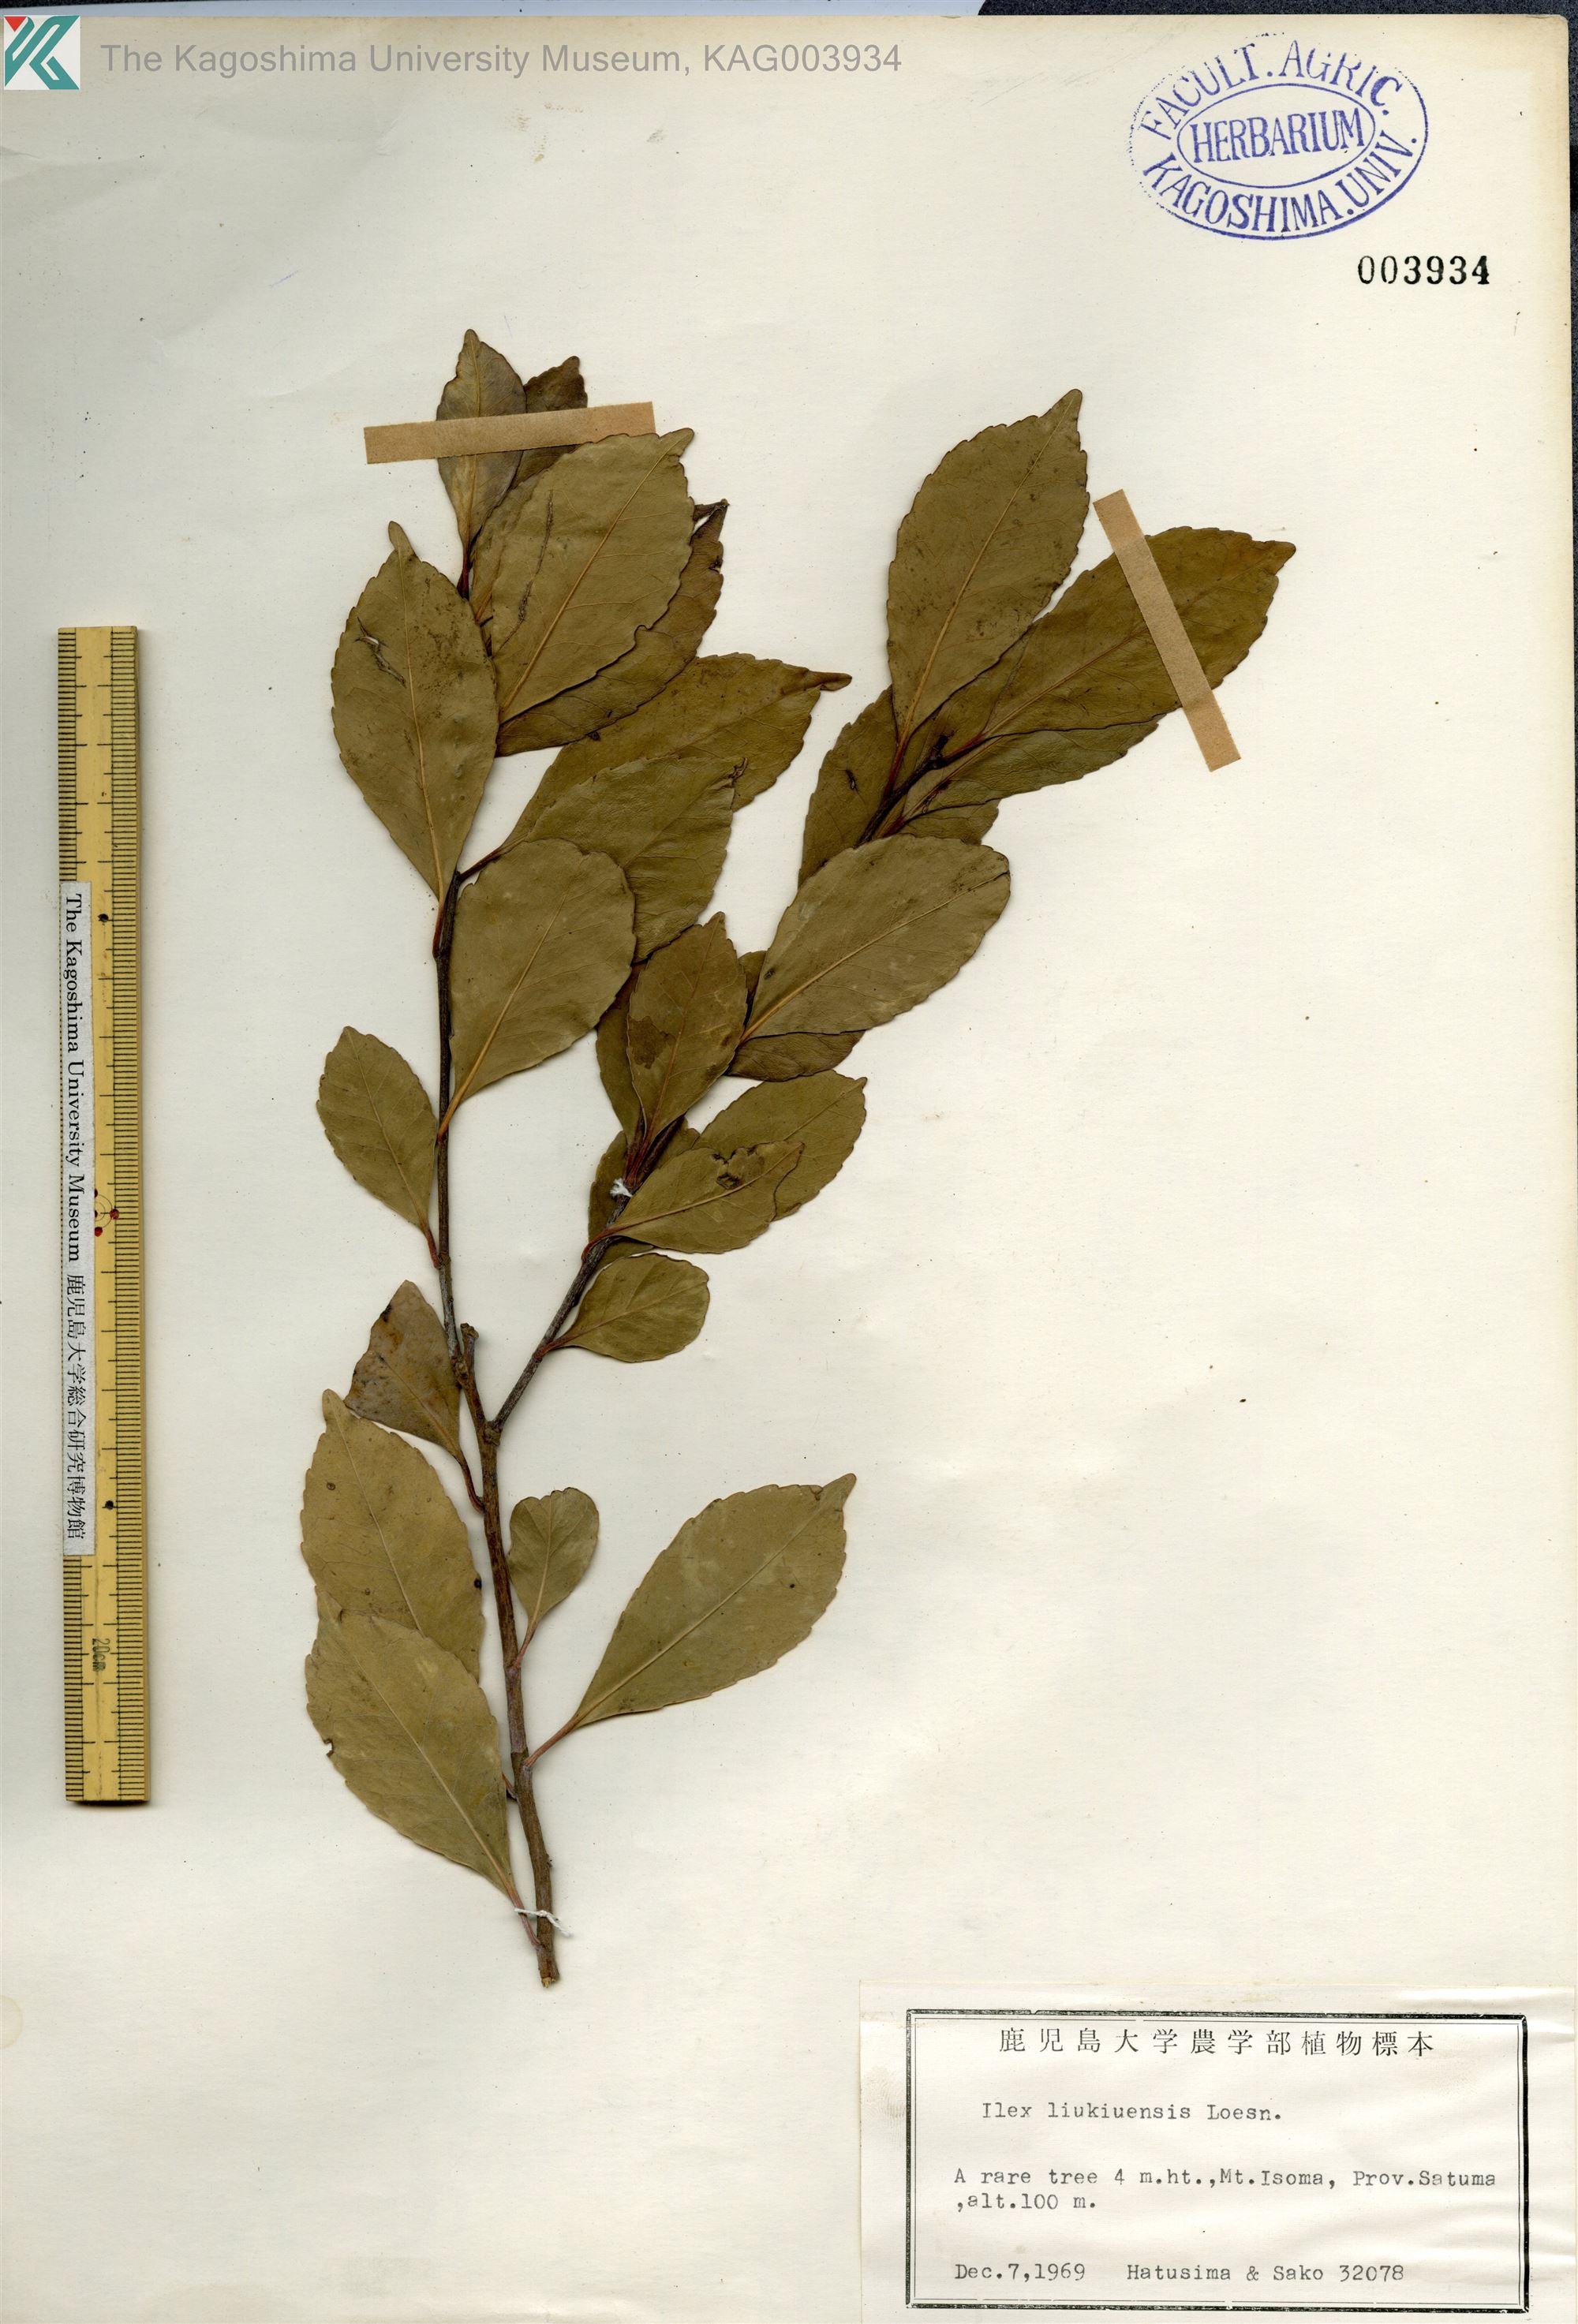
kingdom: Plantae
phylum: Tracheophyta
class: Magnoliopsida
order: Aquifoliales
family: Aquifoliaceae
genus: Ilex
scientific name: Ilex liukiuensis
